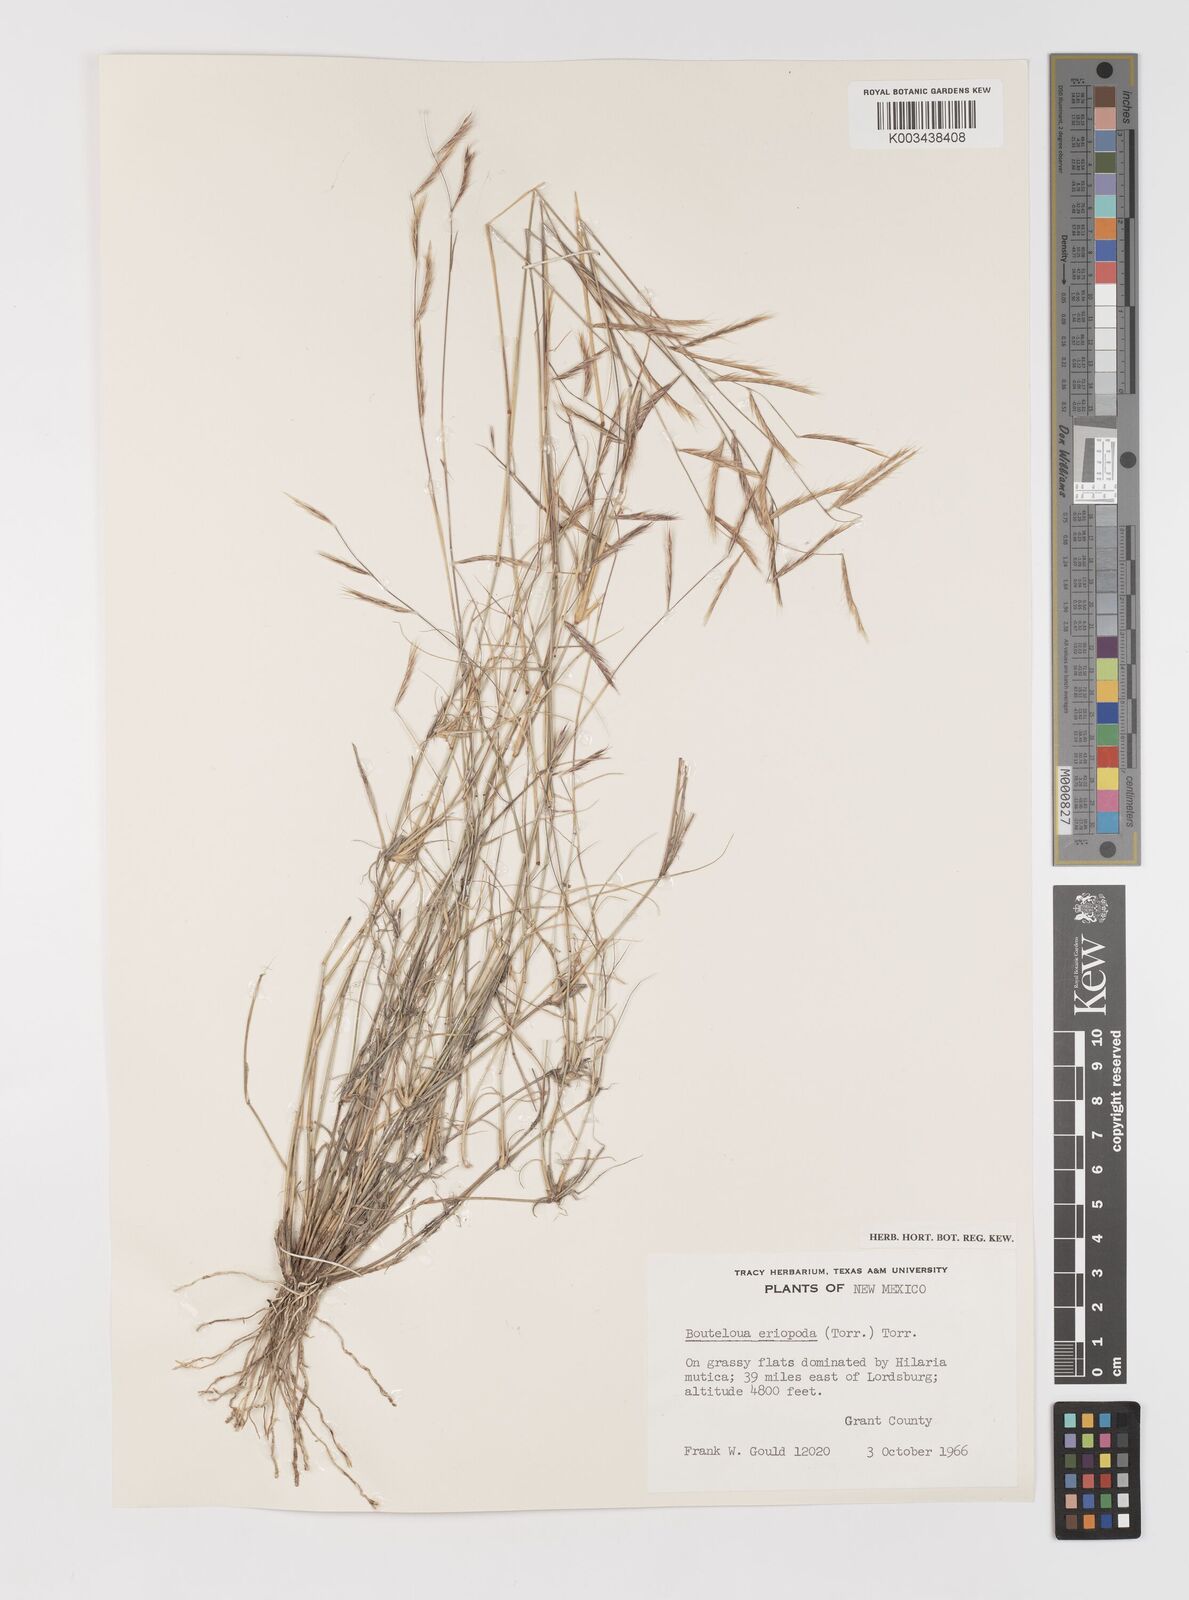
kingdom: Plantae
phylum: Tracheophyta
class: Liliopsida
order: Poales
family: Poaceae
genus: Bouteloua
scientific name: Bouteloua eriopoda
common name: Woolly foot grama
